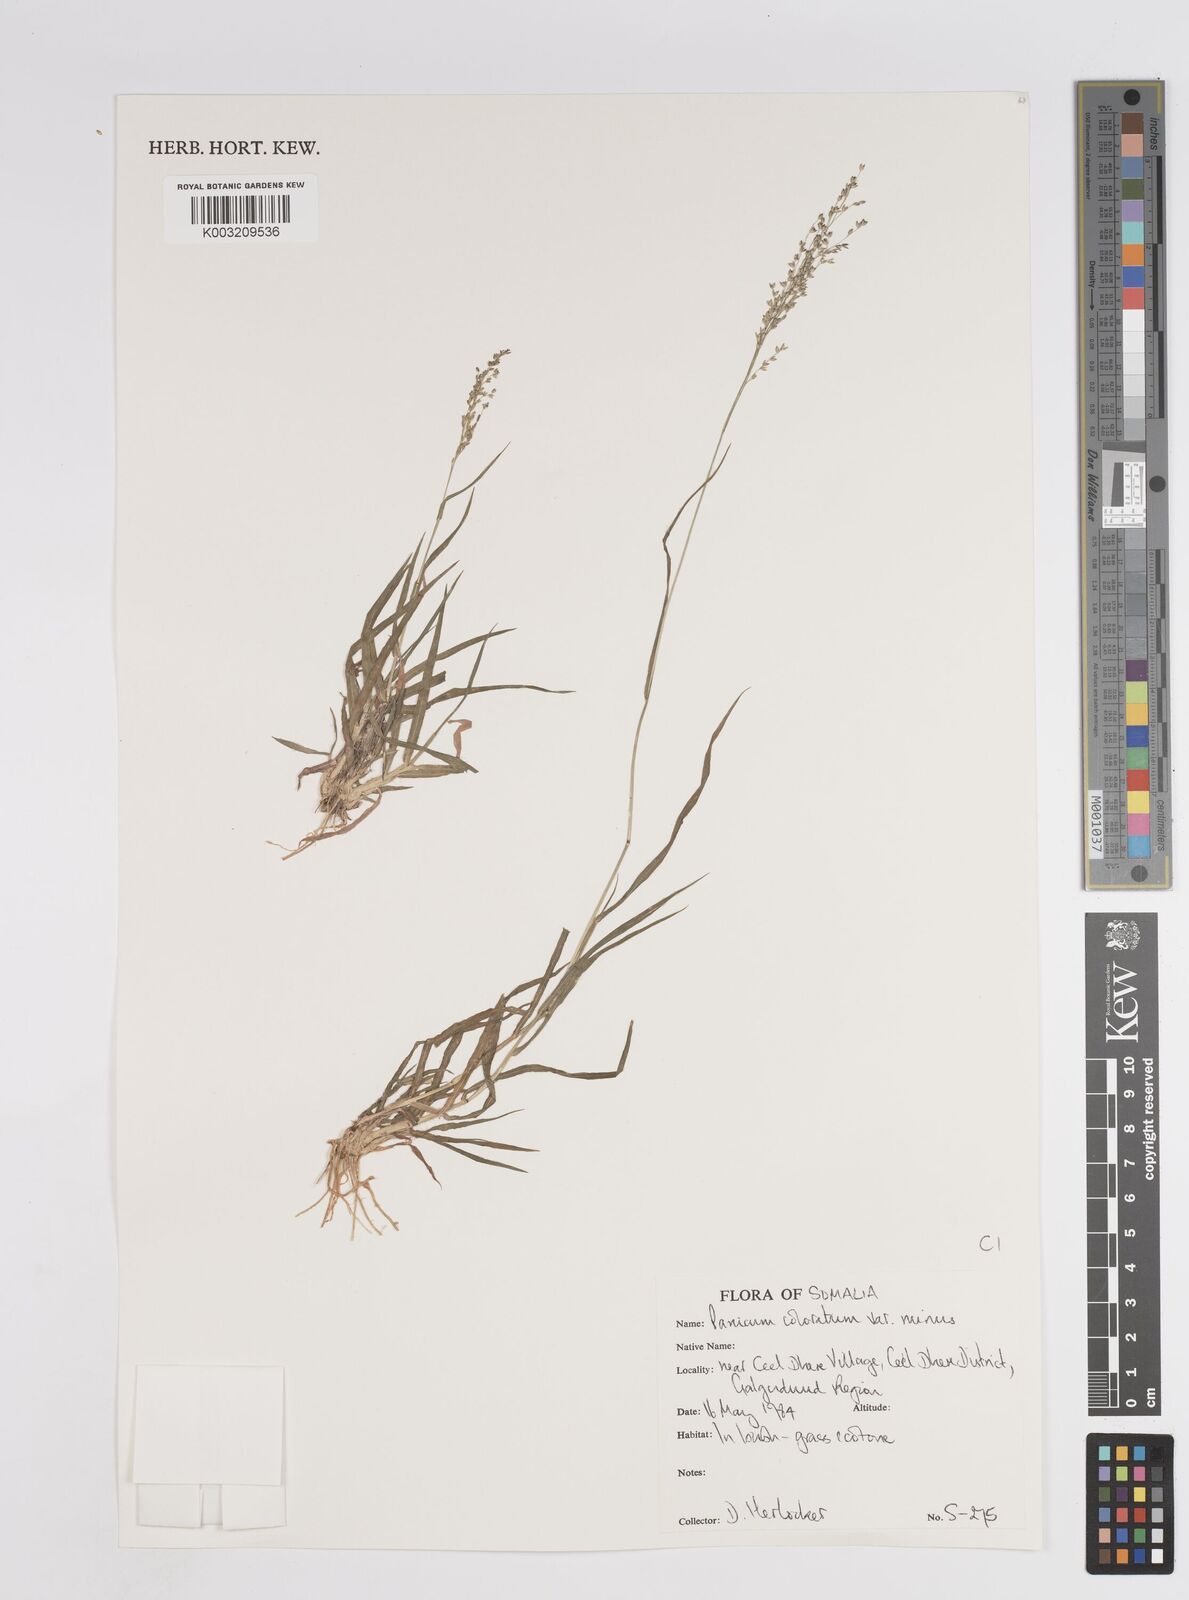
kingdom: Plantae
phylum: Tracheophyta
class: Liliopsida
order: Poales
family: Poaceae
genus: Panicum
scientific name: Panicum coloratum
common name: Kleingrass
